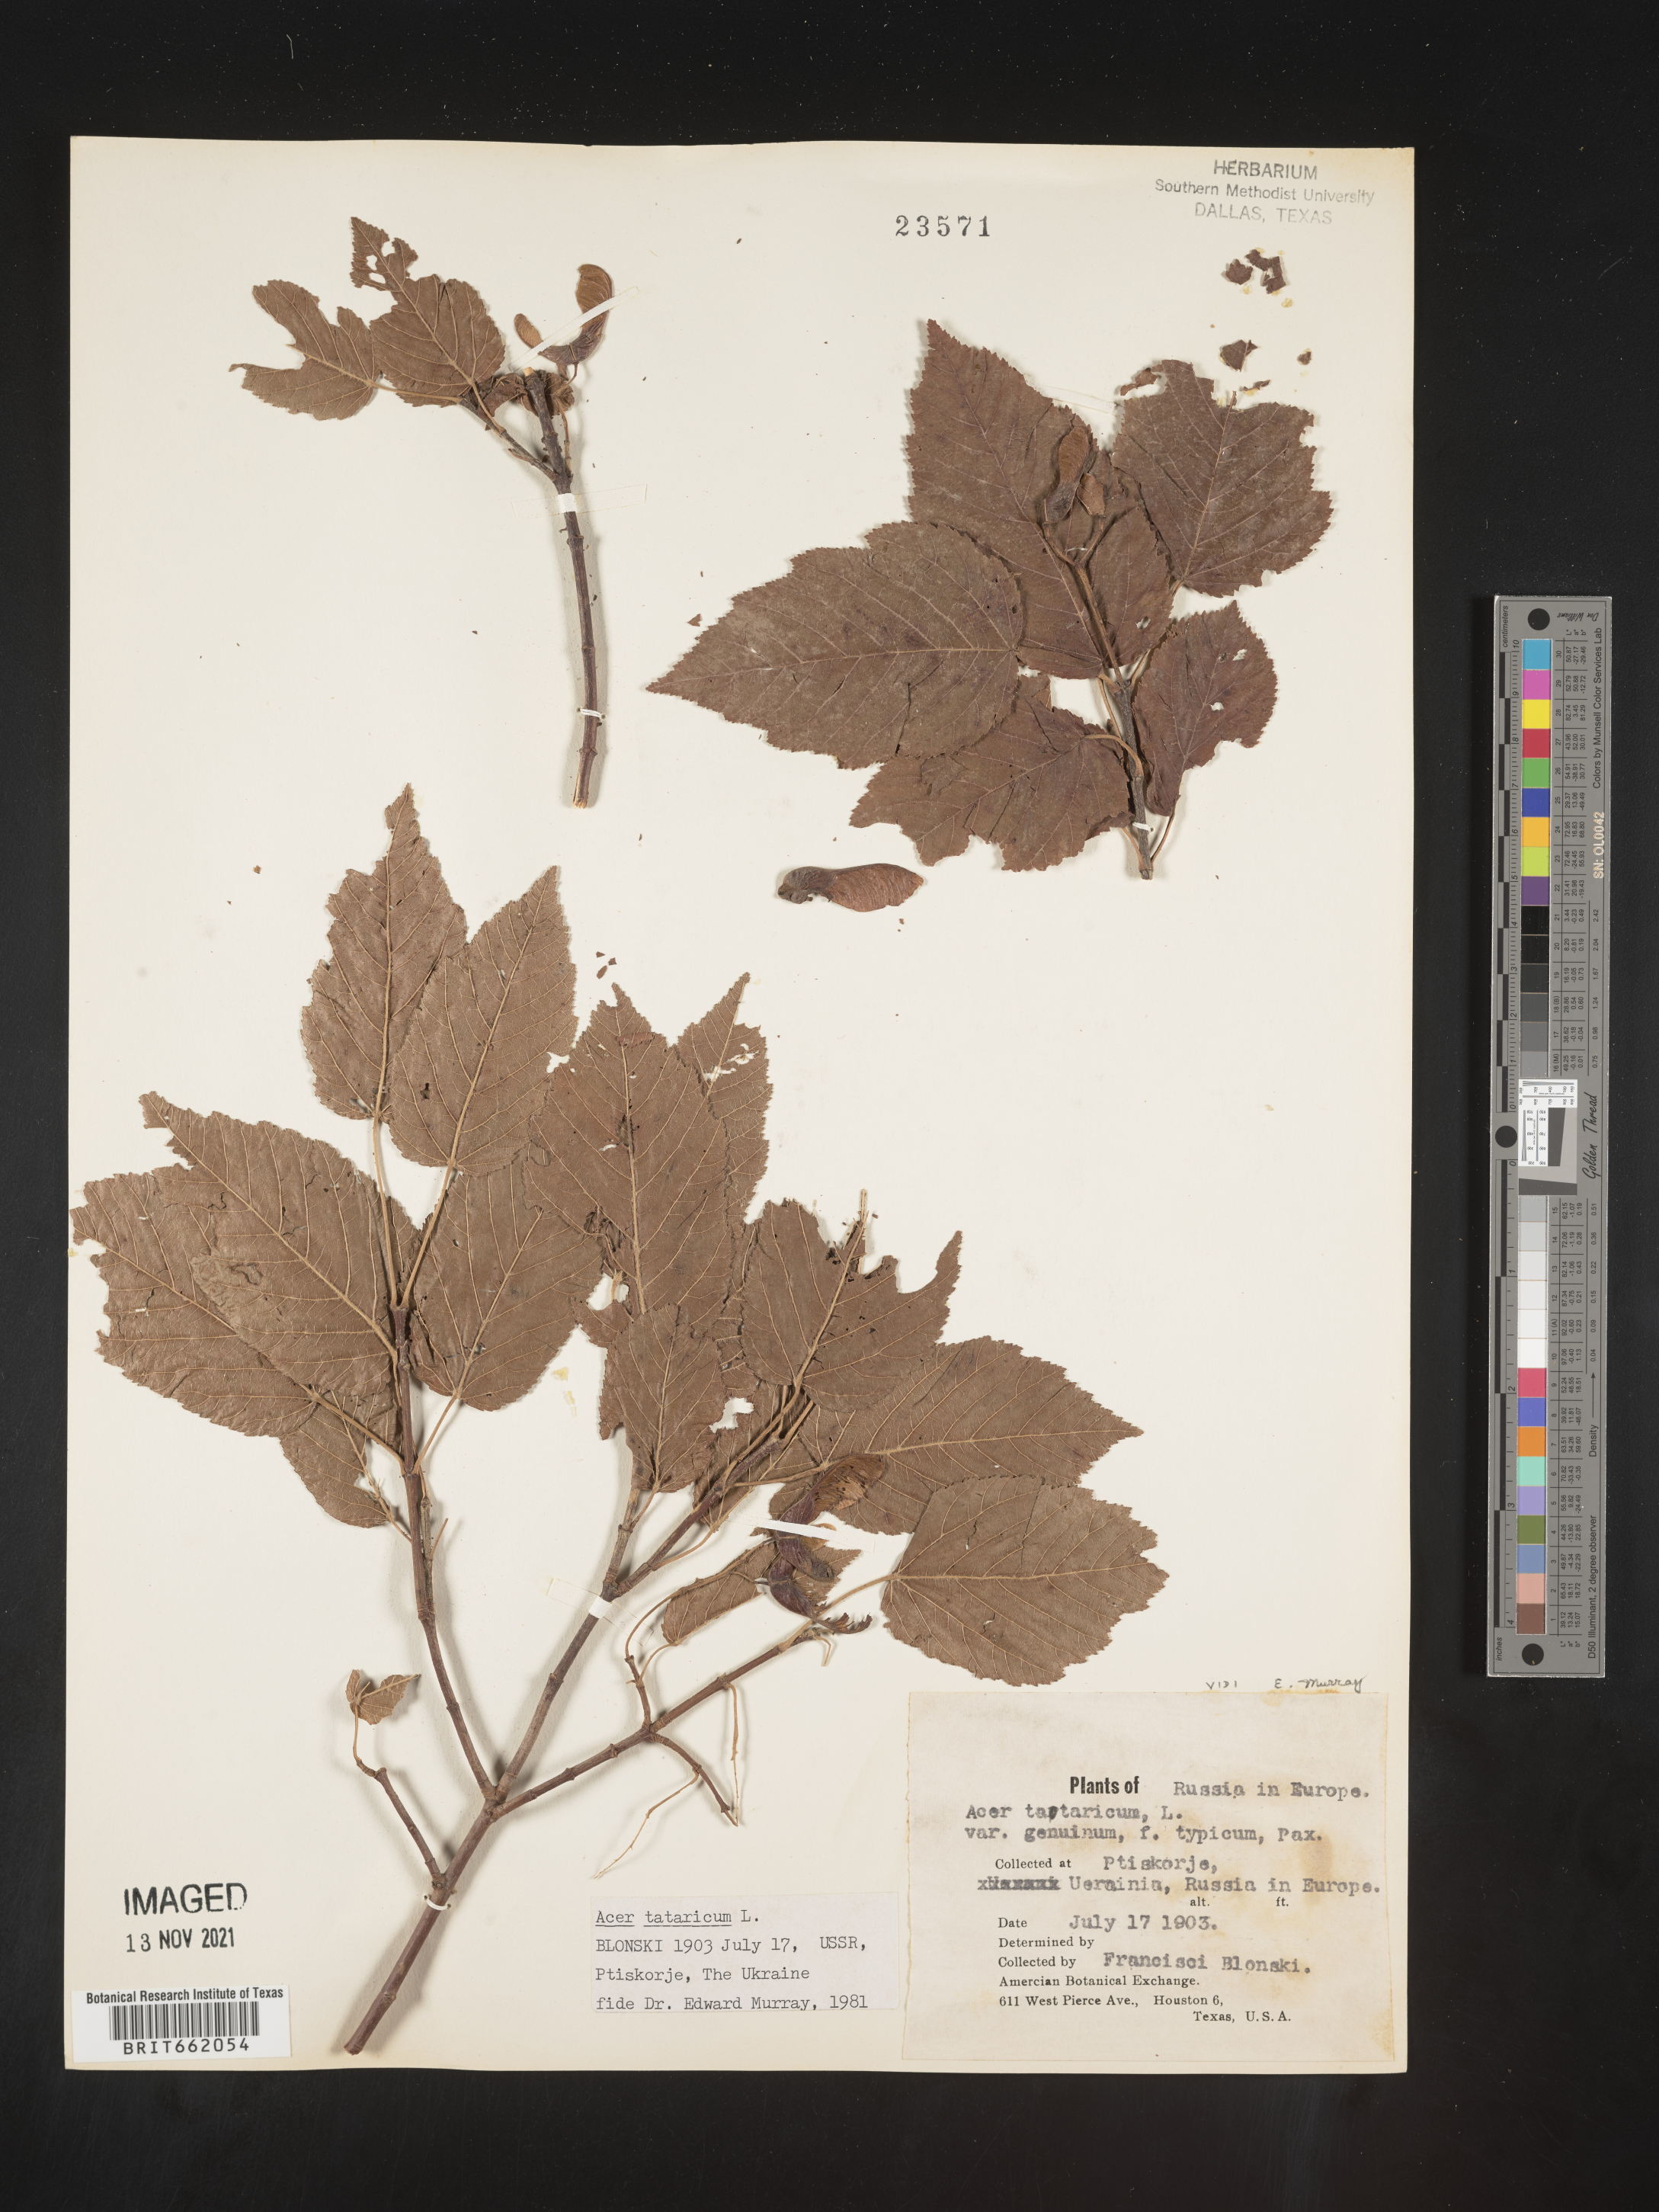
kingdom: Plantae
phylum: Tracheophyta
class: Magnoliopsida
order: Sapindales
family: Sapindaceae
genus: Acer
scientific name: Acer
